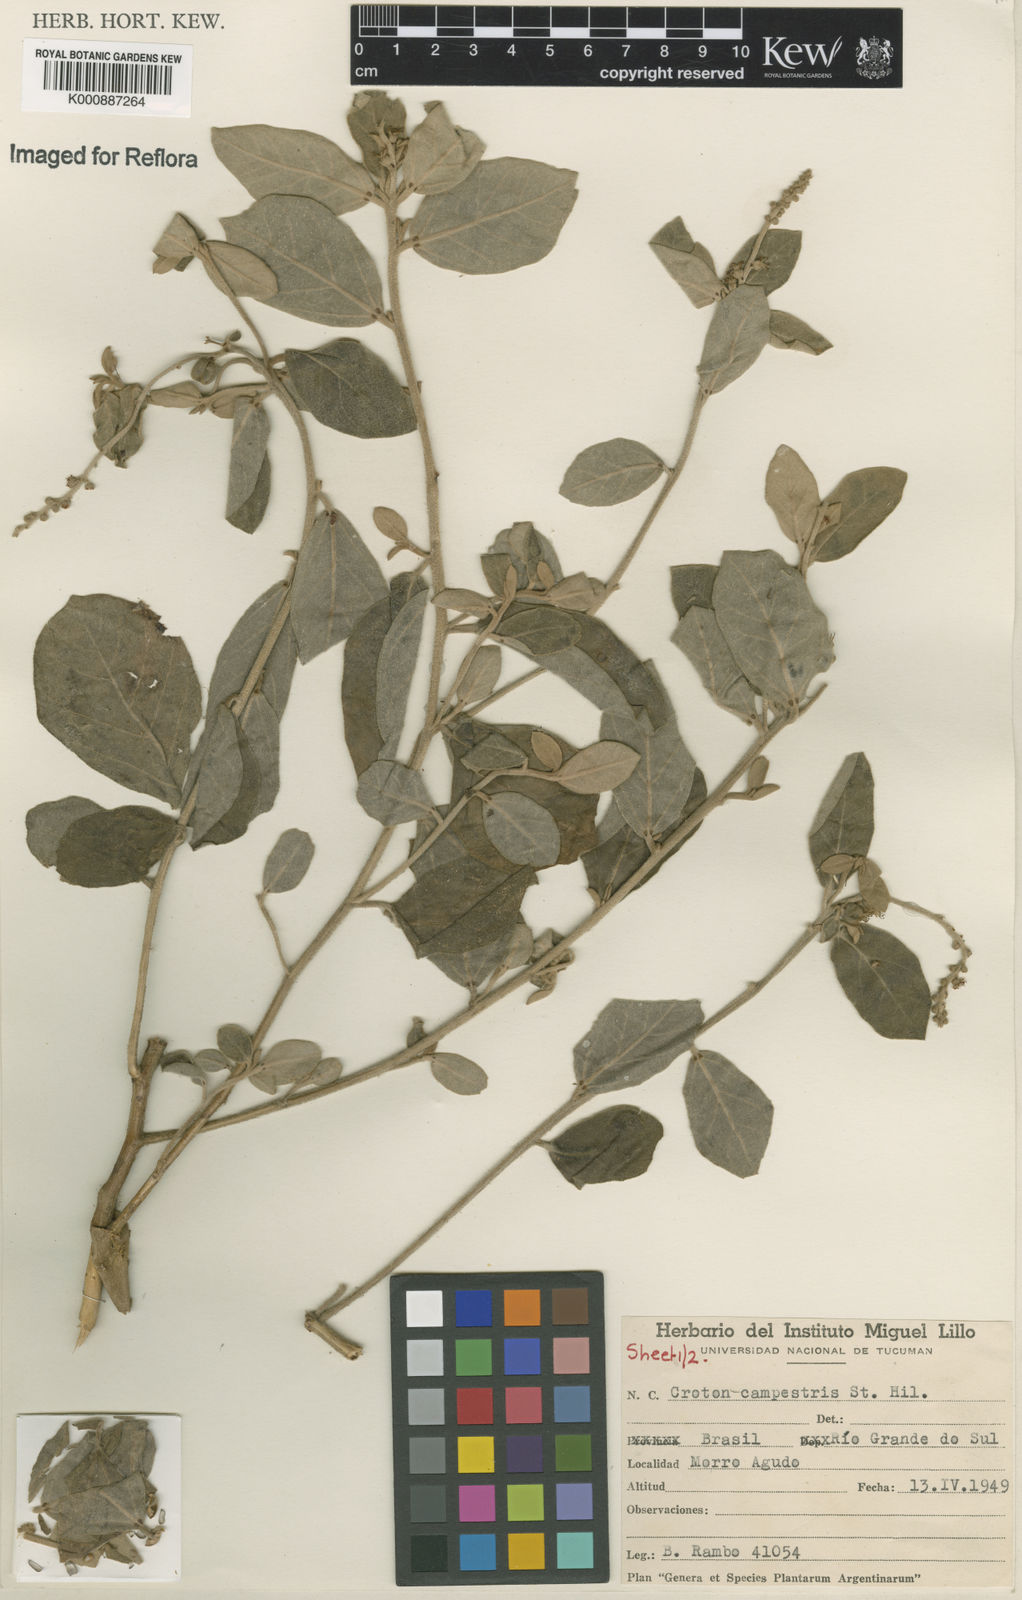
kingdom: Plantae
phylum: Tracheophyta
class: Magnoliopsida
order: Malpighiales
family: Euphorbiaceae
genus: Croton
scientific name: Croton campestris
